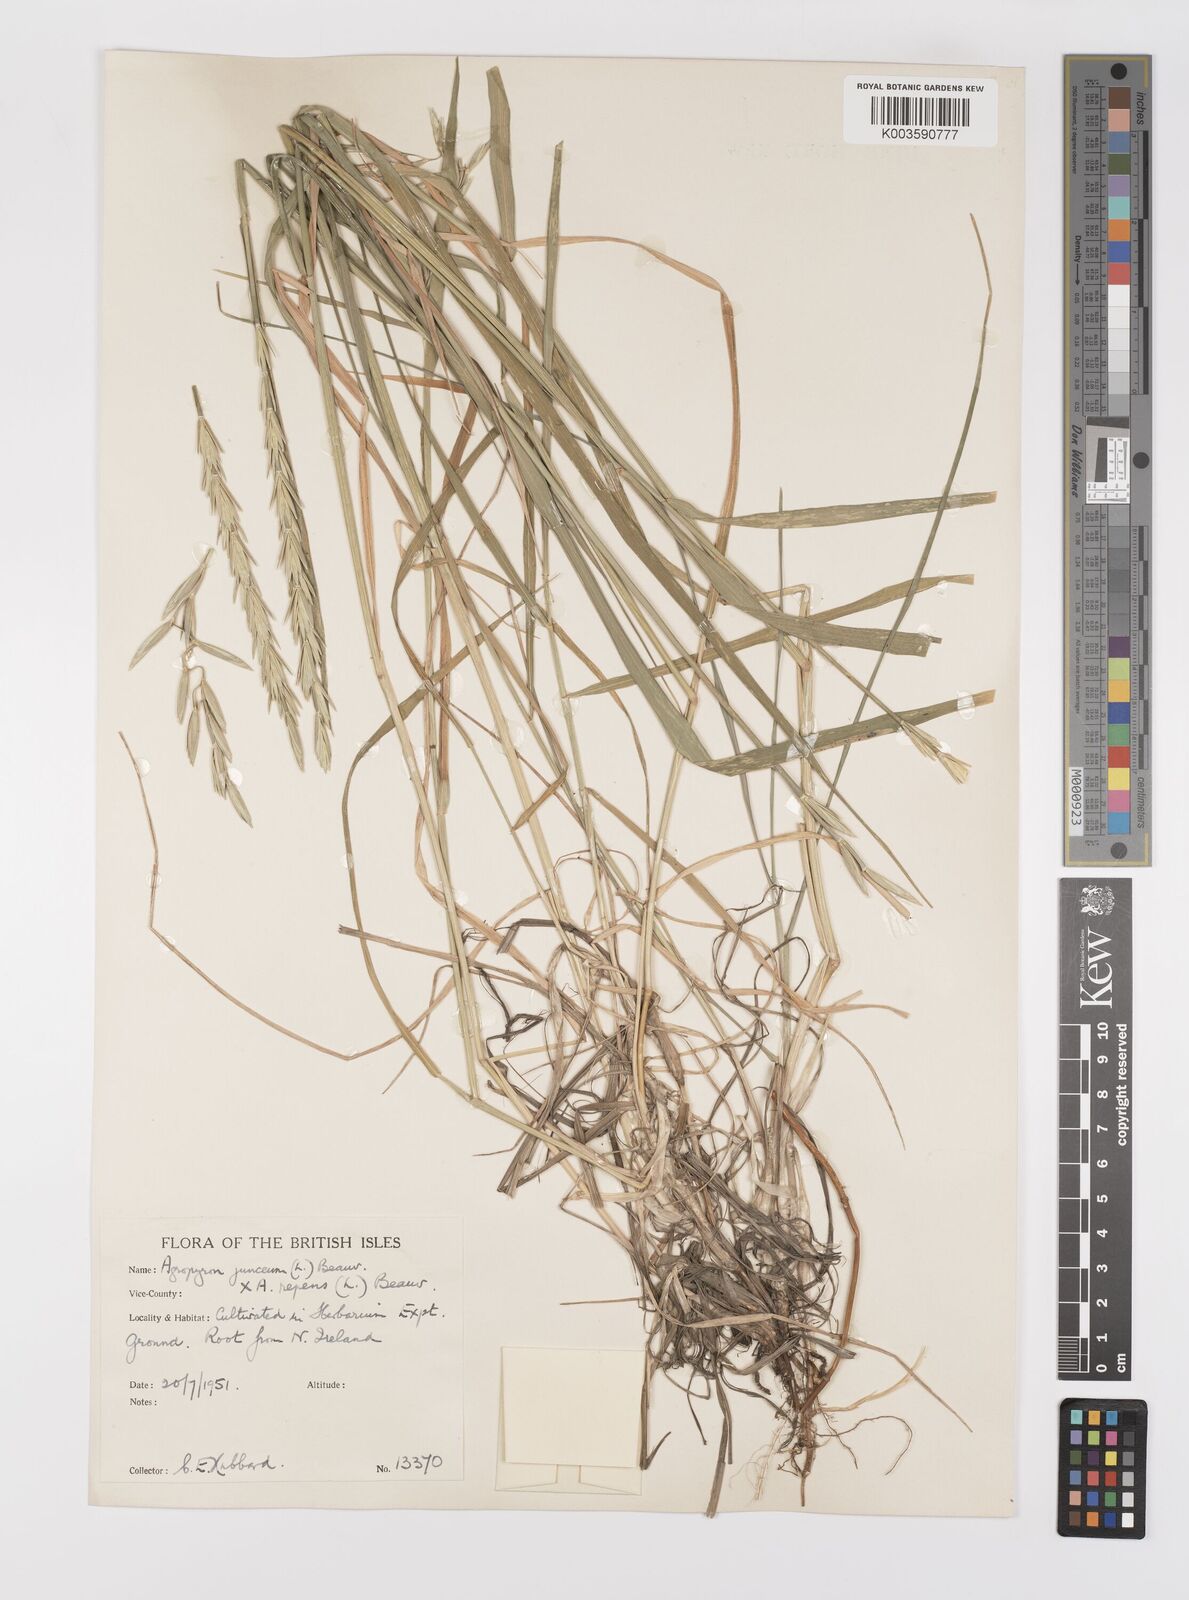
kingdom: Plantae
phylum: Tracheophyta
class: Liliopsida
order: Poales
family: Poaceae
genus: Thinopyrum
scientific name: Thinopyrum junceum
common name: Russian wheatgrass
